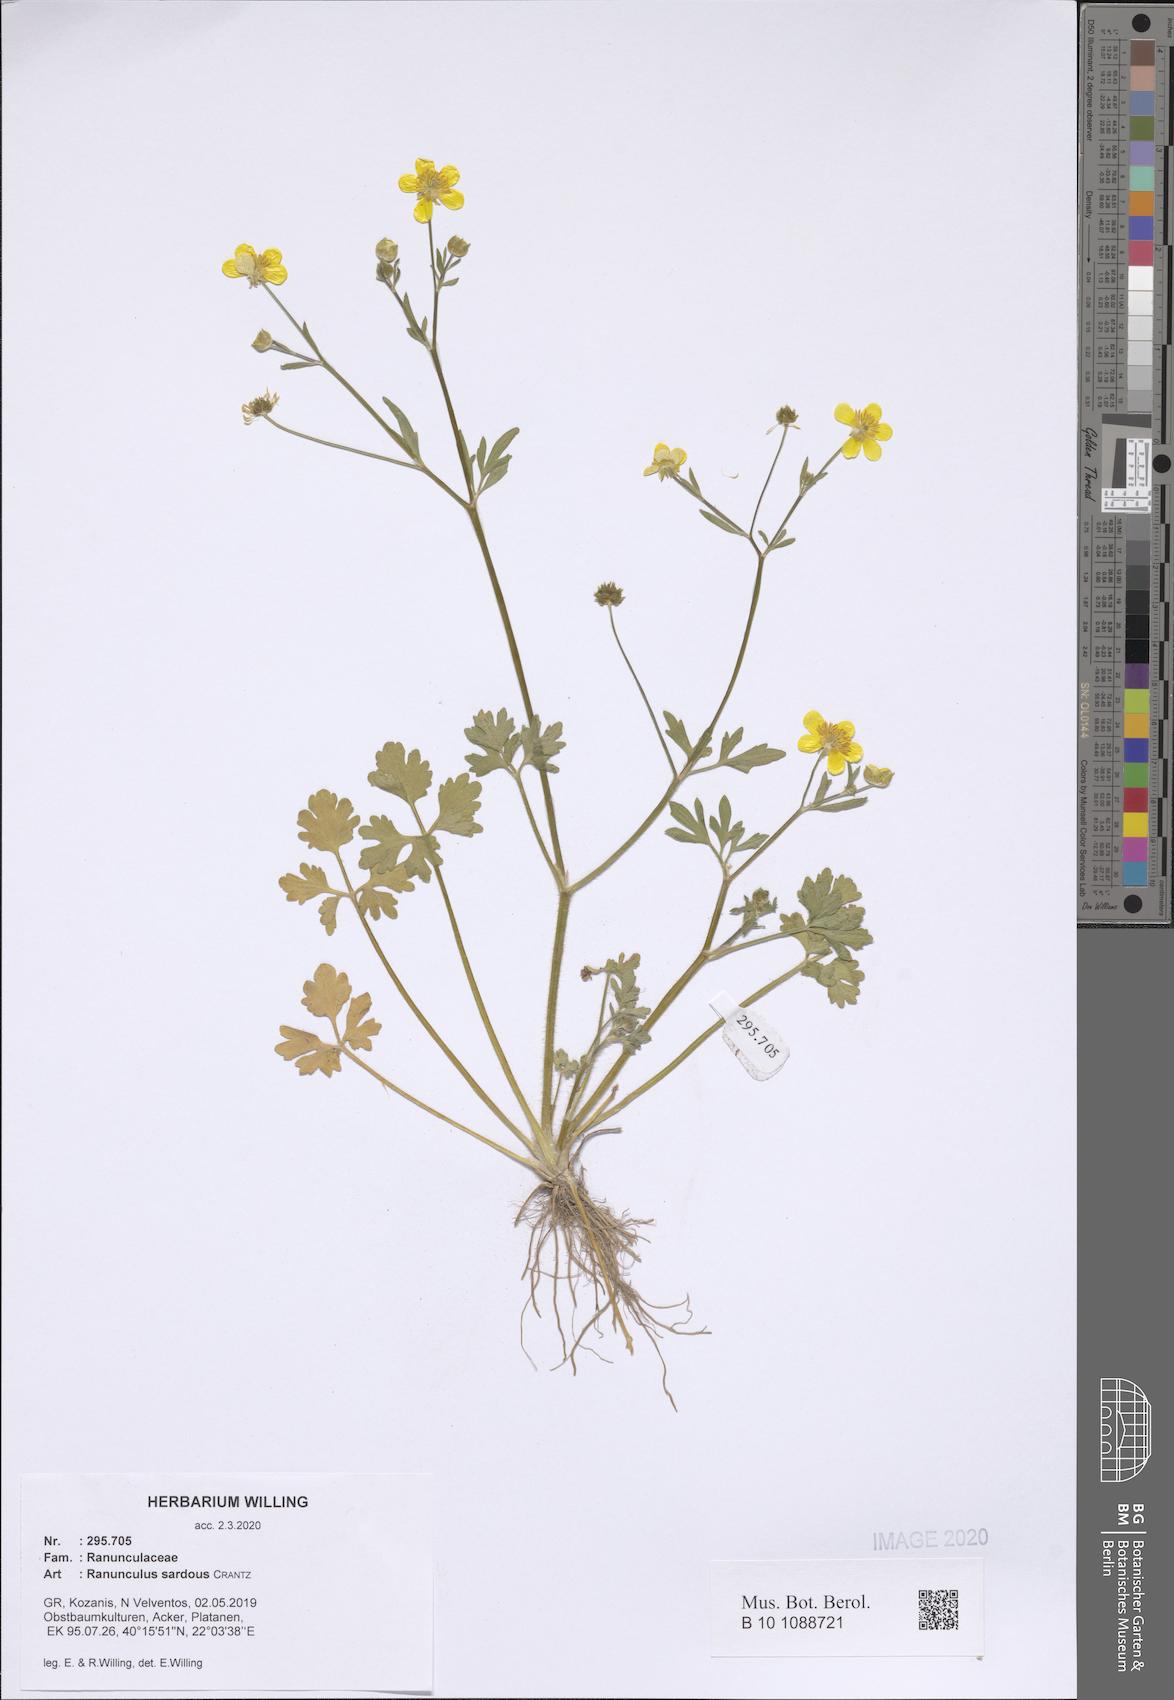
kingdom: Plantae
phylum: Tracheophyta
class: Magnoliopsida
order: Ranunculales
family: Ranunculaceae
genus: Ranunculus
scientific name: Ranunculus sardous
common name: Hairy buttercup
